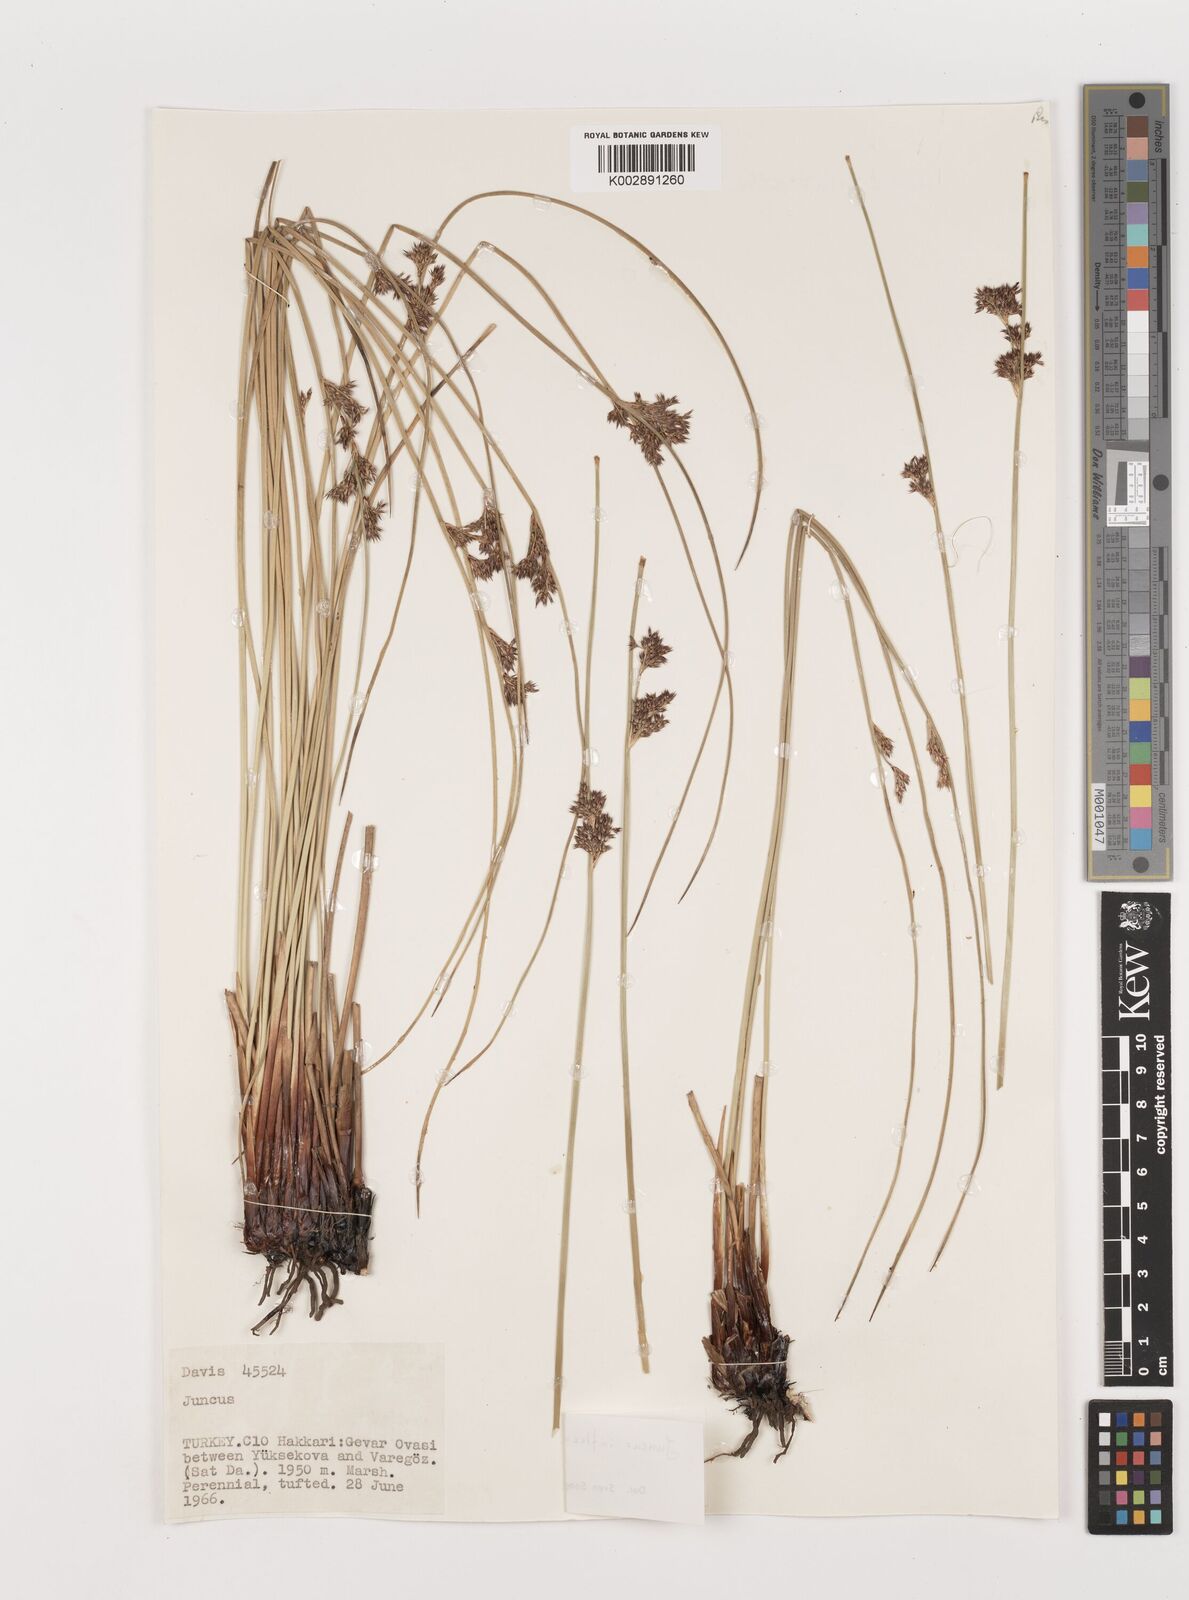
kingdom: Plantae
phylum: Tracheophyta
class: Liliopsida
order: Poales
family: Juncaceae
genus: Juncus
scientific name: Juncus inflexus
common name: Hard rush
